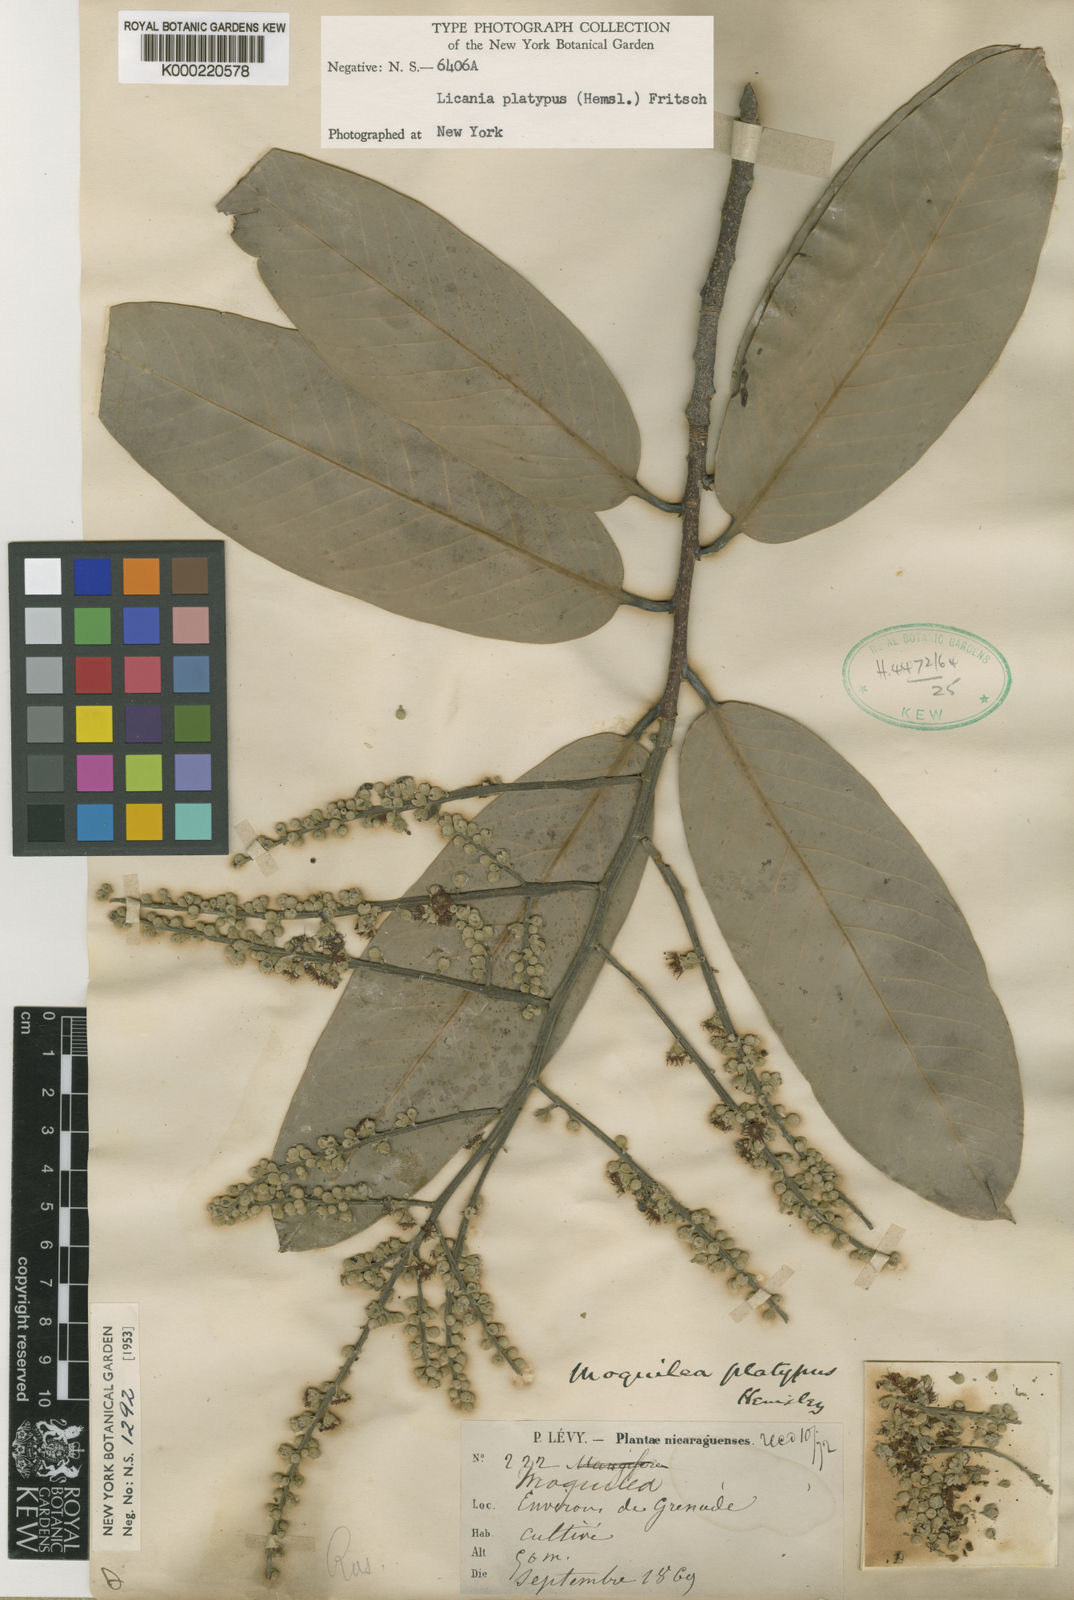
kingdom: Plantae
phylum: Tracheophyta
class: Magnoliopsida
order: Malpighiales
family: Chrysobalanaceae
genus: Moquilea
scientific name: Moquilea platypus
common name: Sansapote
